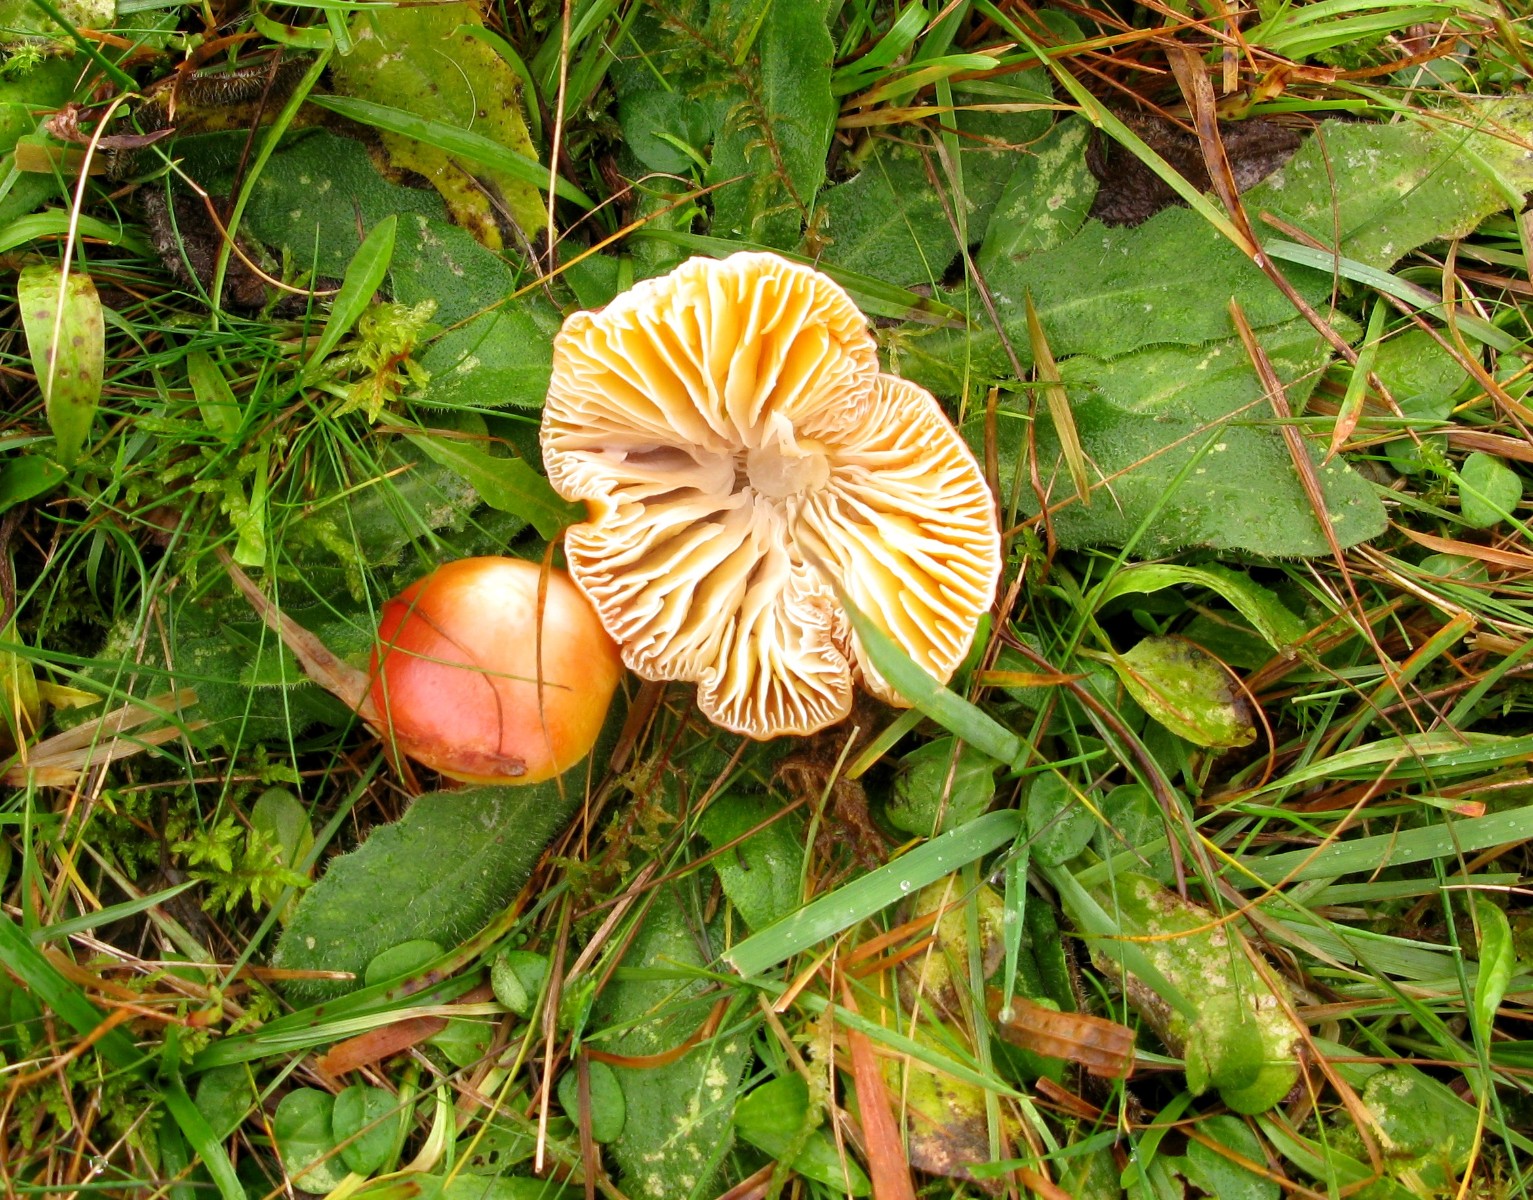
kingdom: Fungi
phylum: Basidiomycota
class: Agaricomycetes
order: Agaricales
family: Hygrophoraceae
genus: Hygrocybe
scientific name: Hygrocybe punicea
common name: skarlagen-vokshat
